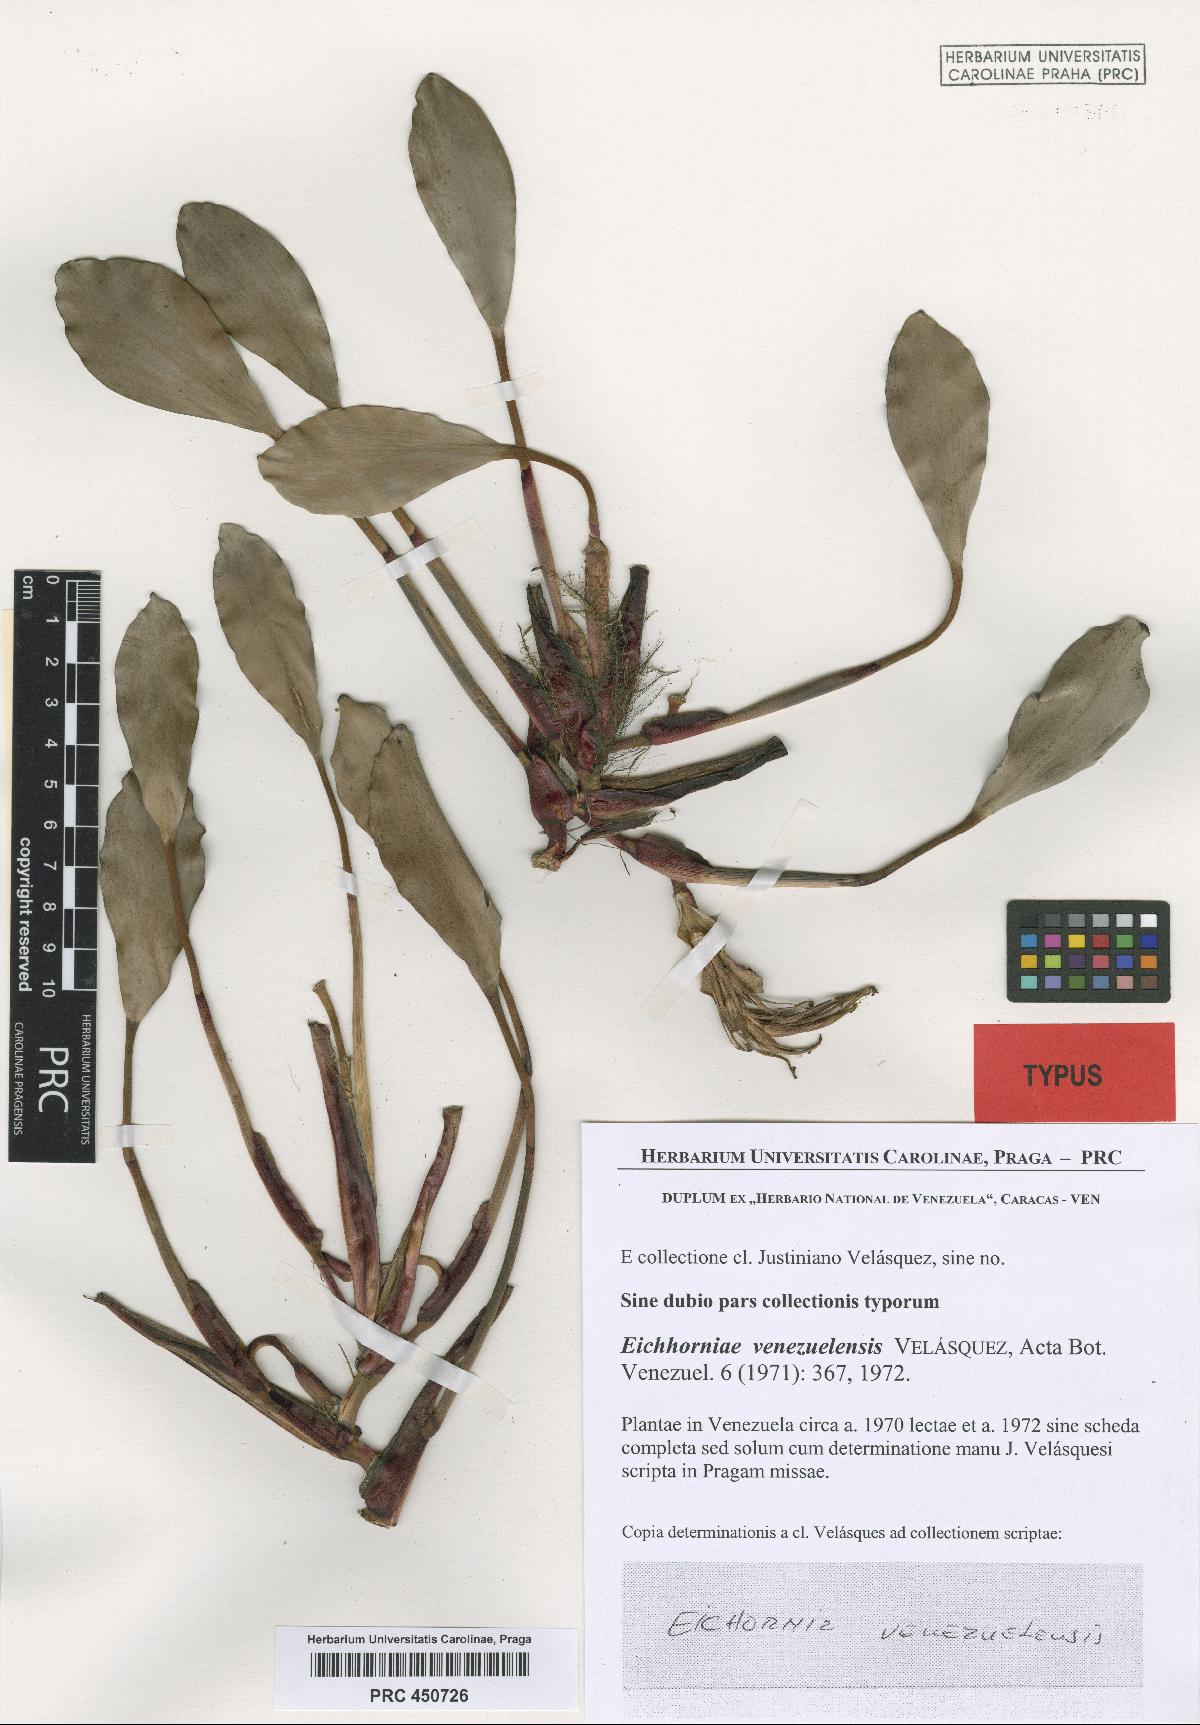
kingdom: Plantae
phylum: Tracheophyta
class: Liliopsida
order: Commelinales
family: Pontederiaceae
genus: Pontederia
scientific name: Pontederia heterosperma
